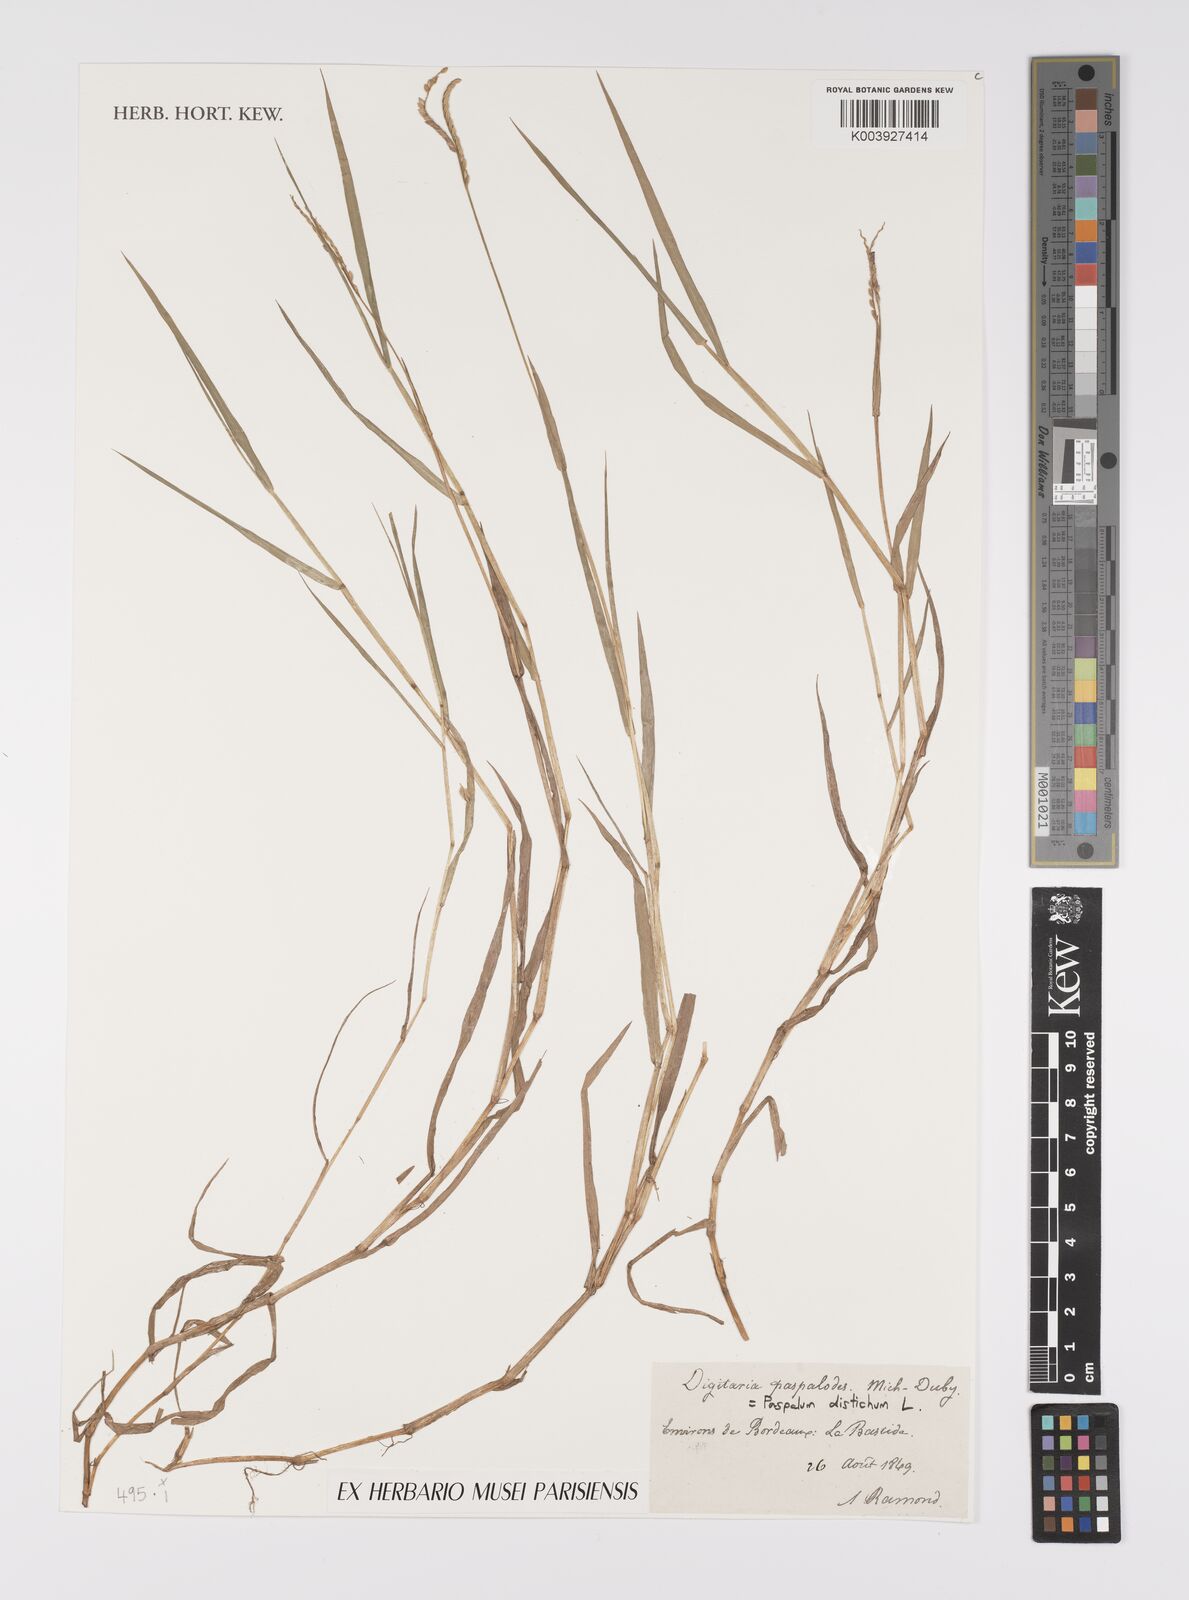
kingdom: Plantae
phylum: Tracheophyta
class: Liliopsida
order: Poales
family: Poaceae
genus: Paspalum
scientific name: Paspalum distichum
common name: Knotgrass
